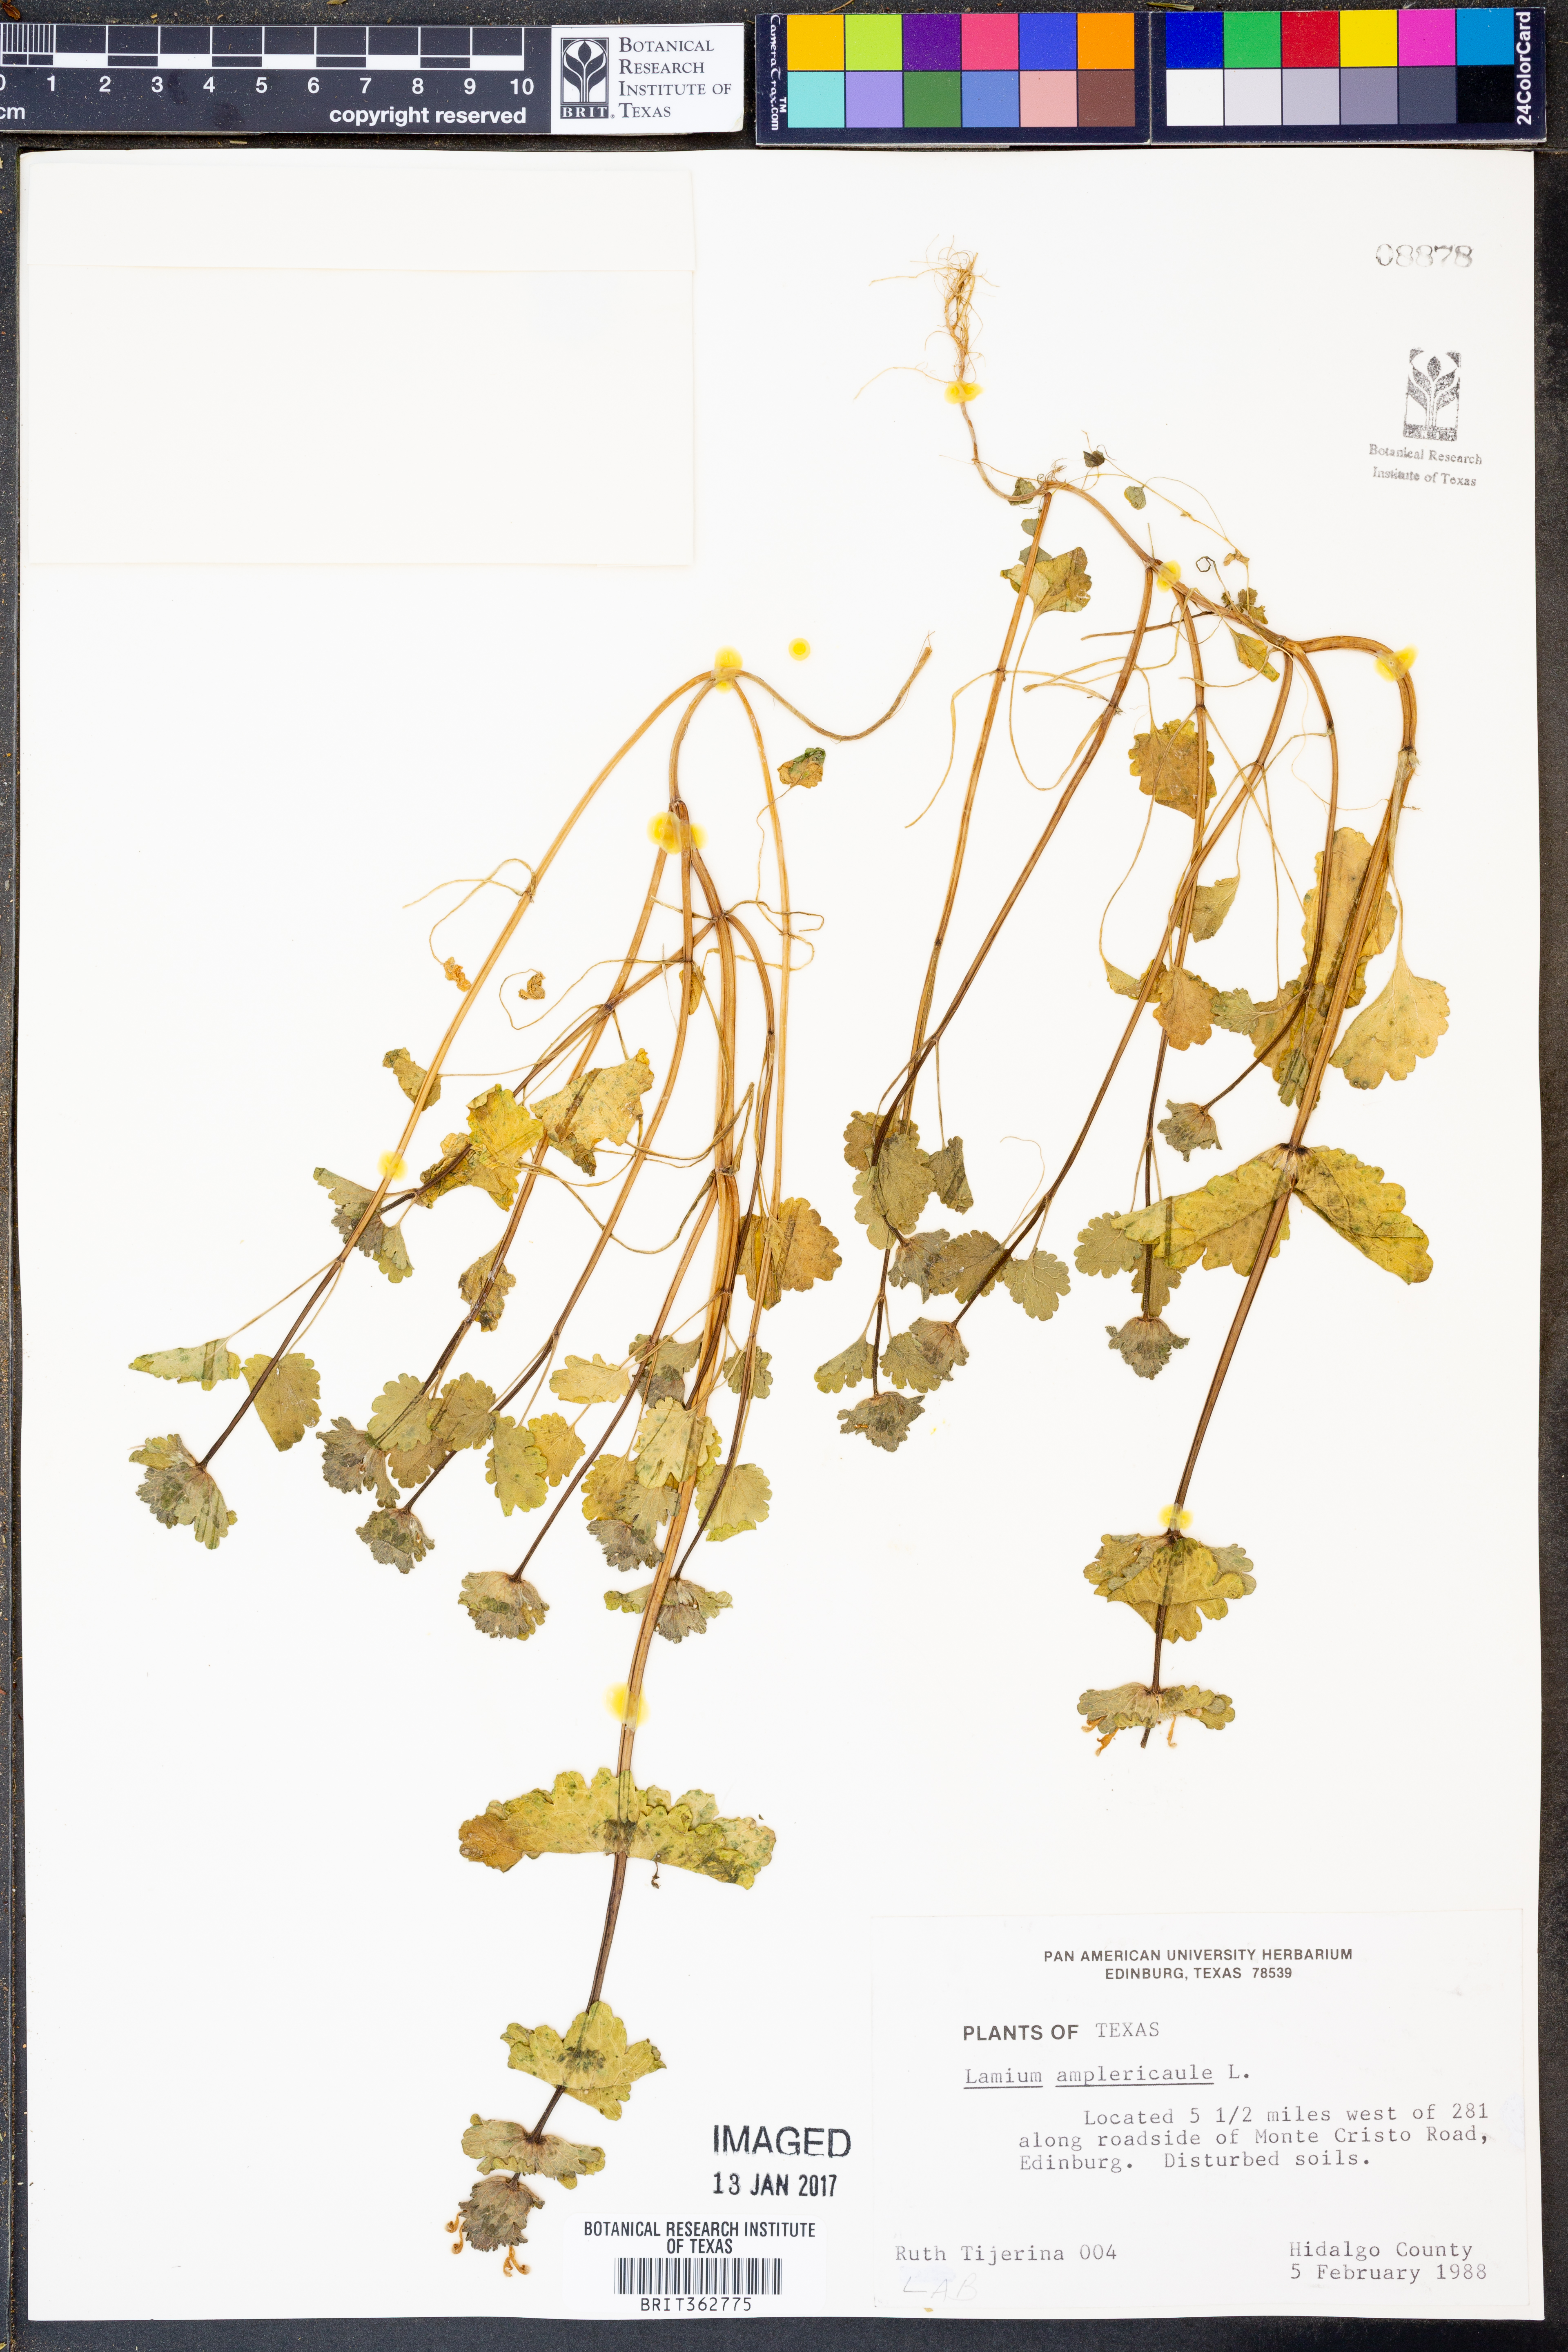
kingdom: Plantae
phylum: Tracheophyta
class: Magnoliopsida
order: Lamiales
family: Lamiaceae
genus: Lamium
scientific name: Lamium amplexicaule
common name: Henbit dead-nettle
